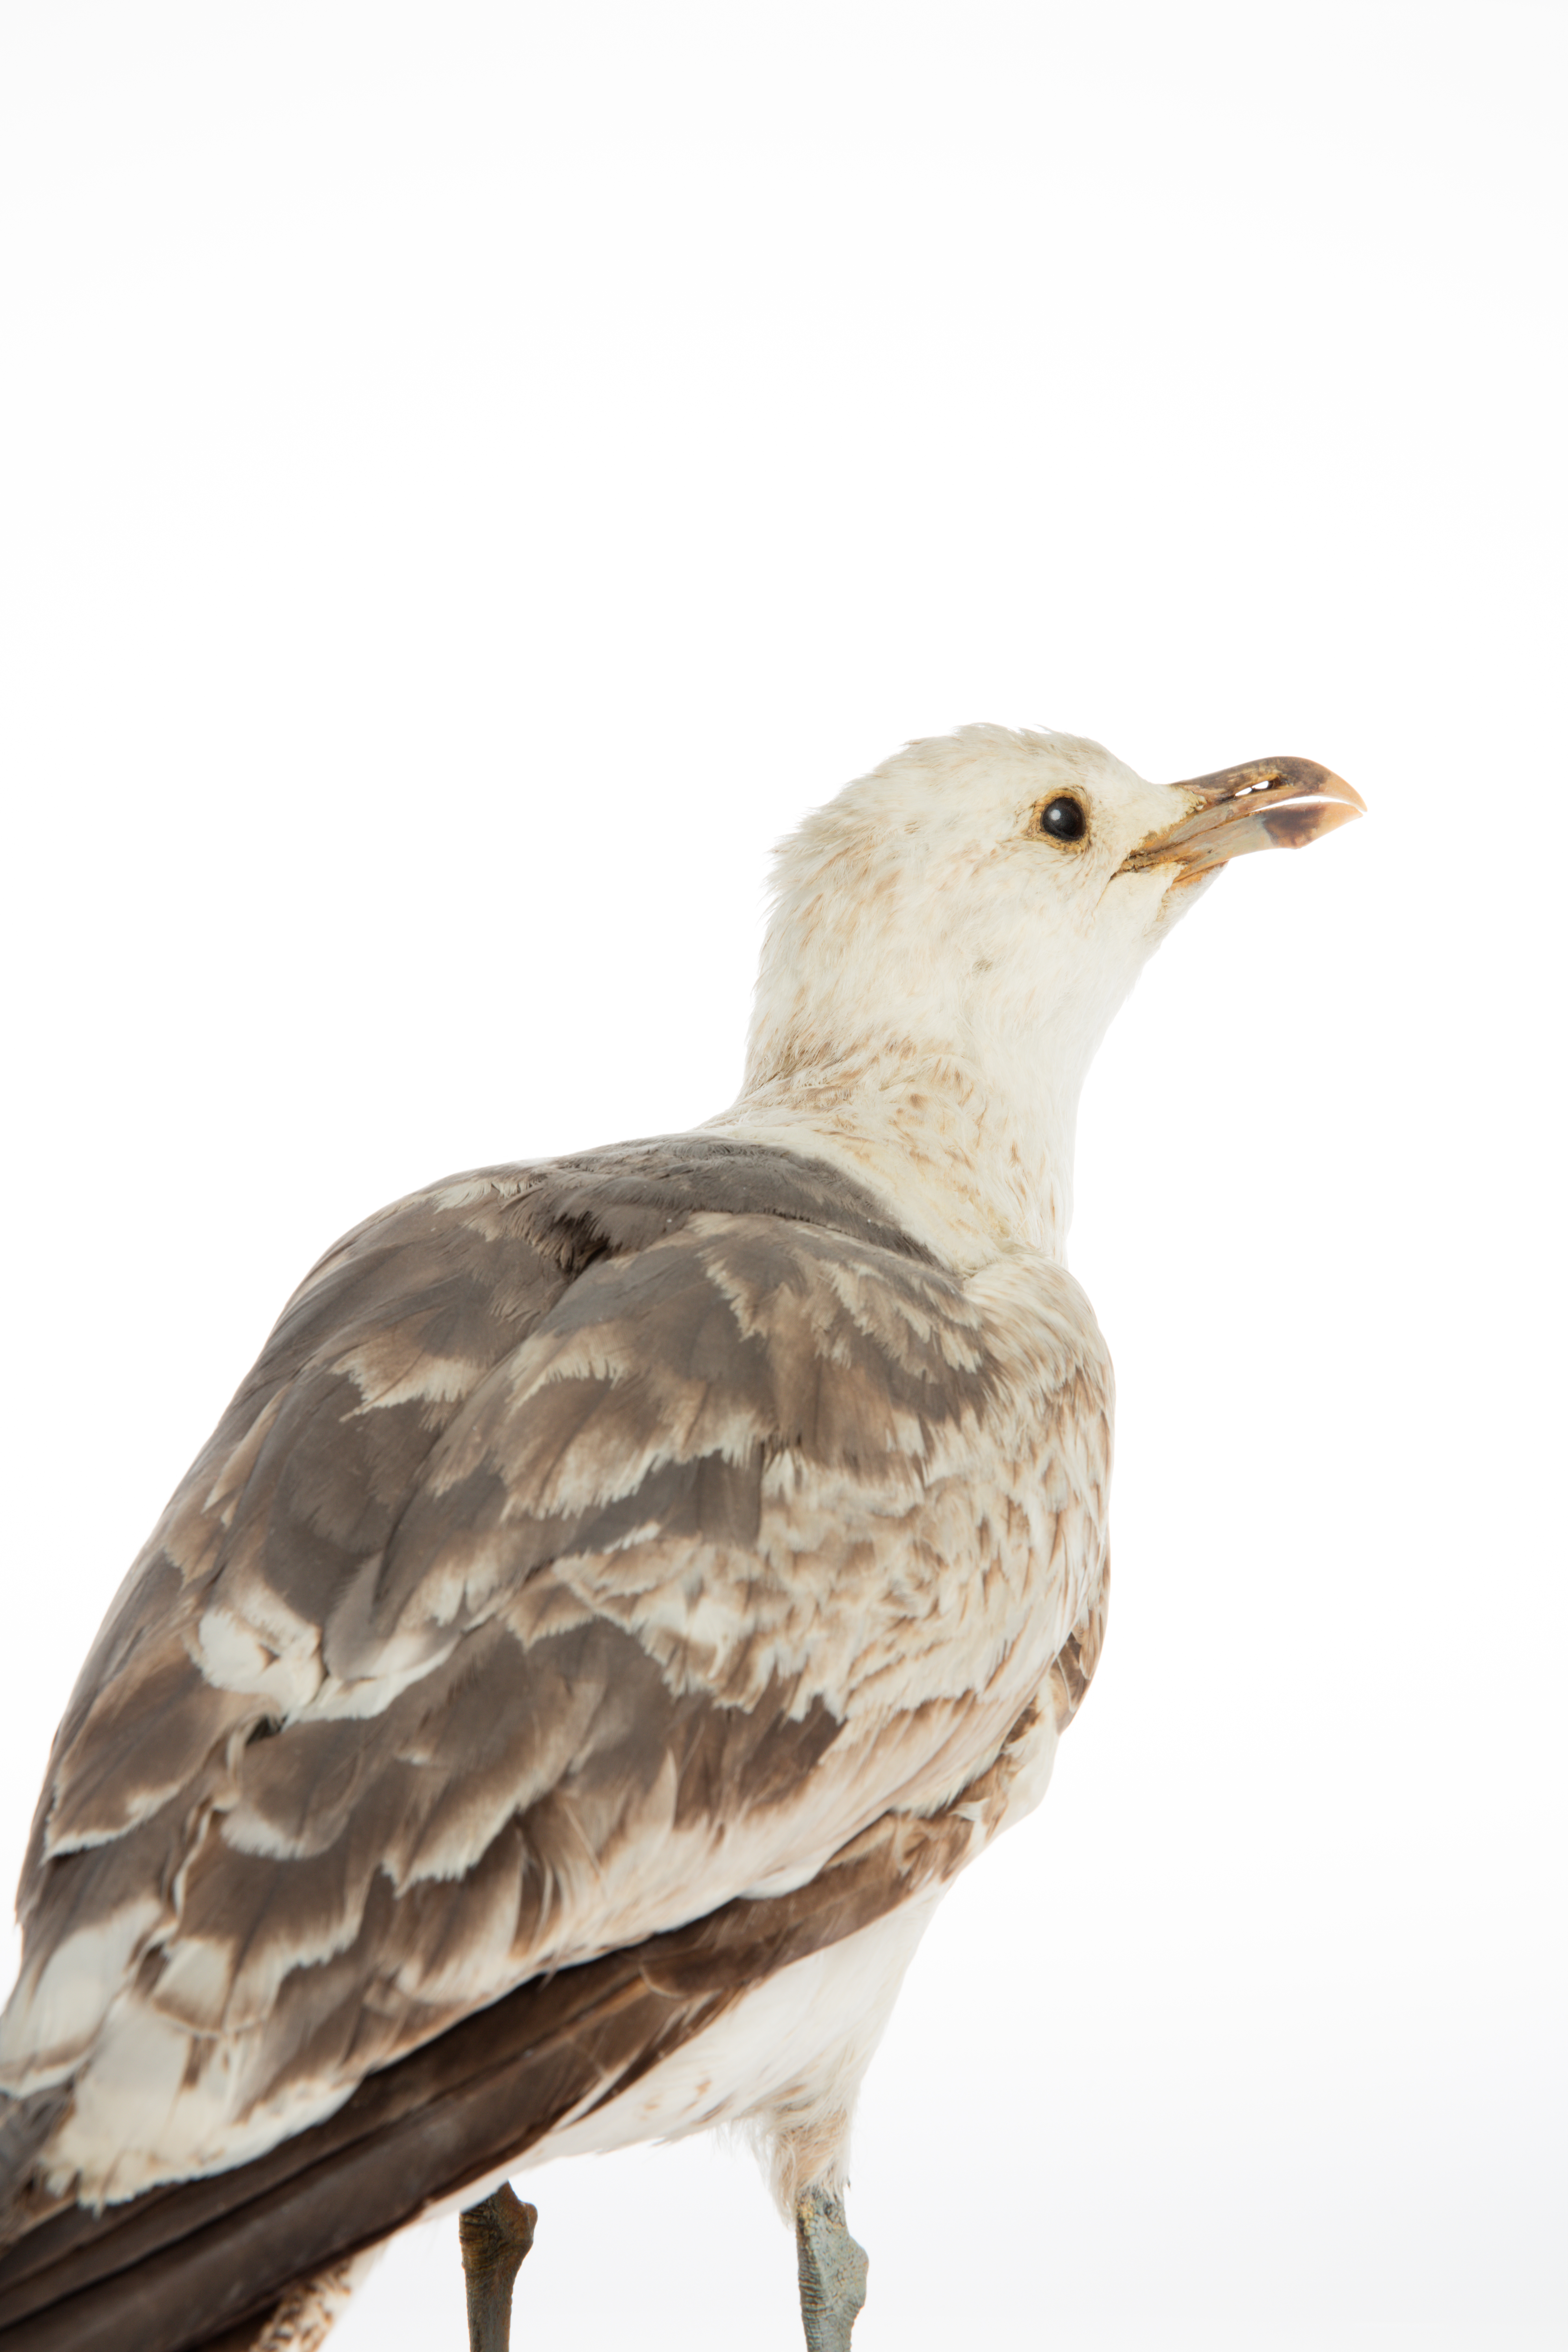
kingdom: Animalia
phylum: Chordata
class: Aves
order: Charadriiformes
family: Laridae
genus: Larus
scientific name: Larus dominicanus
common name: Kelp gull
